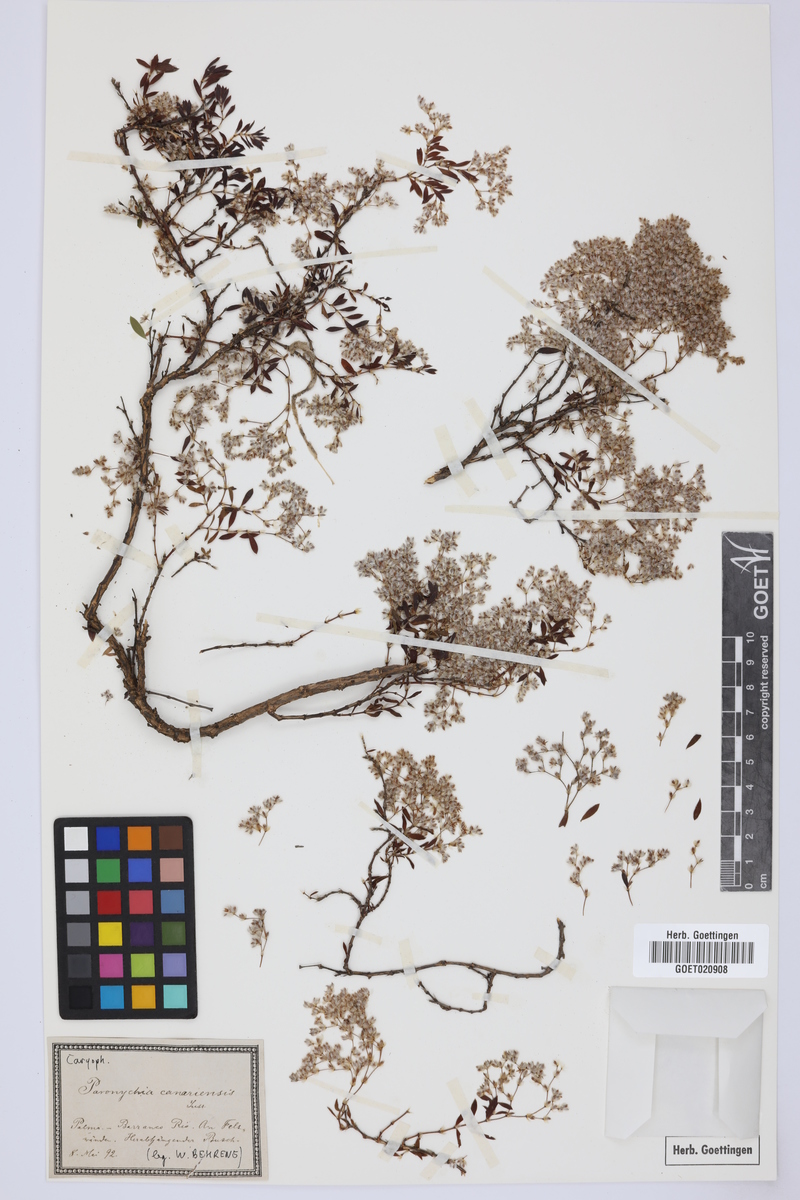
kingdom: Plantae
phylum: Tracheophyta
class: Magnoliopsida
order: Caryophyllales
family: Caryophyllaceae
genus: Paronychia
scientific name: Paronychia canariensis
